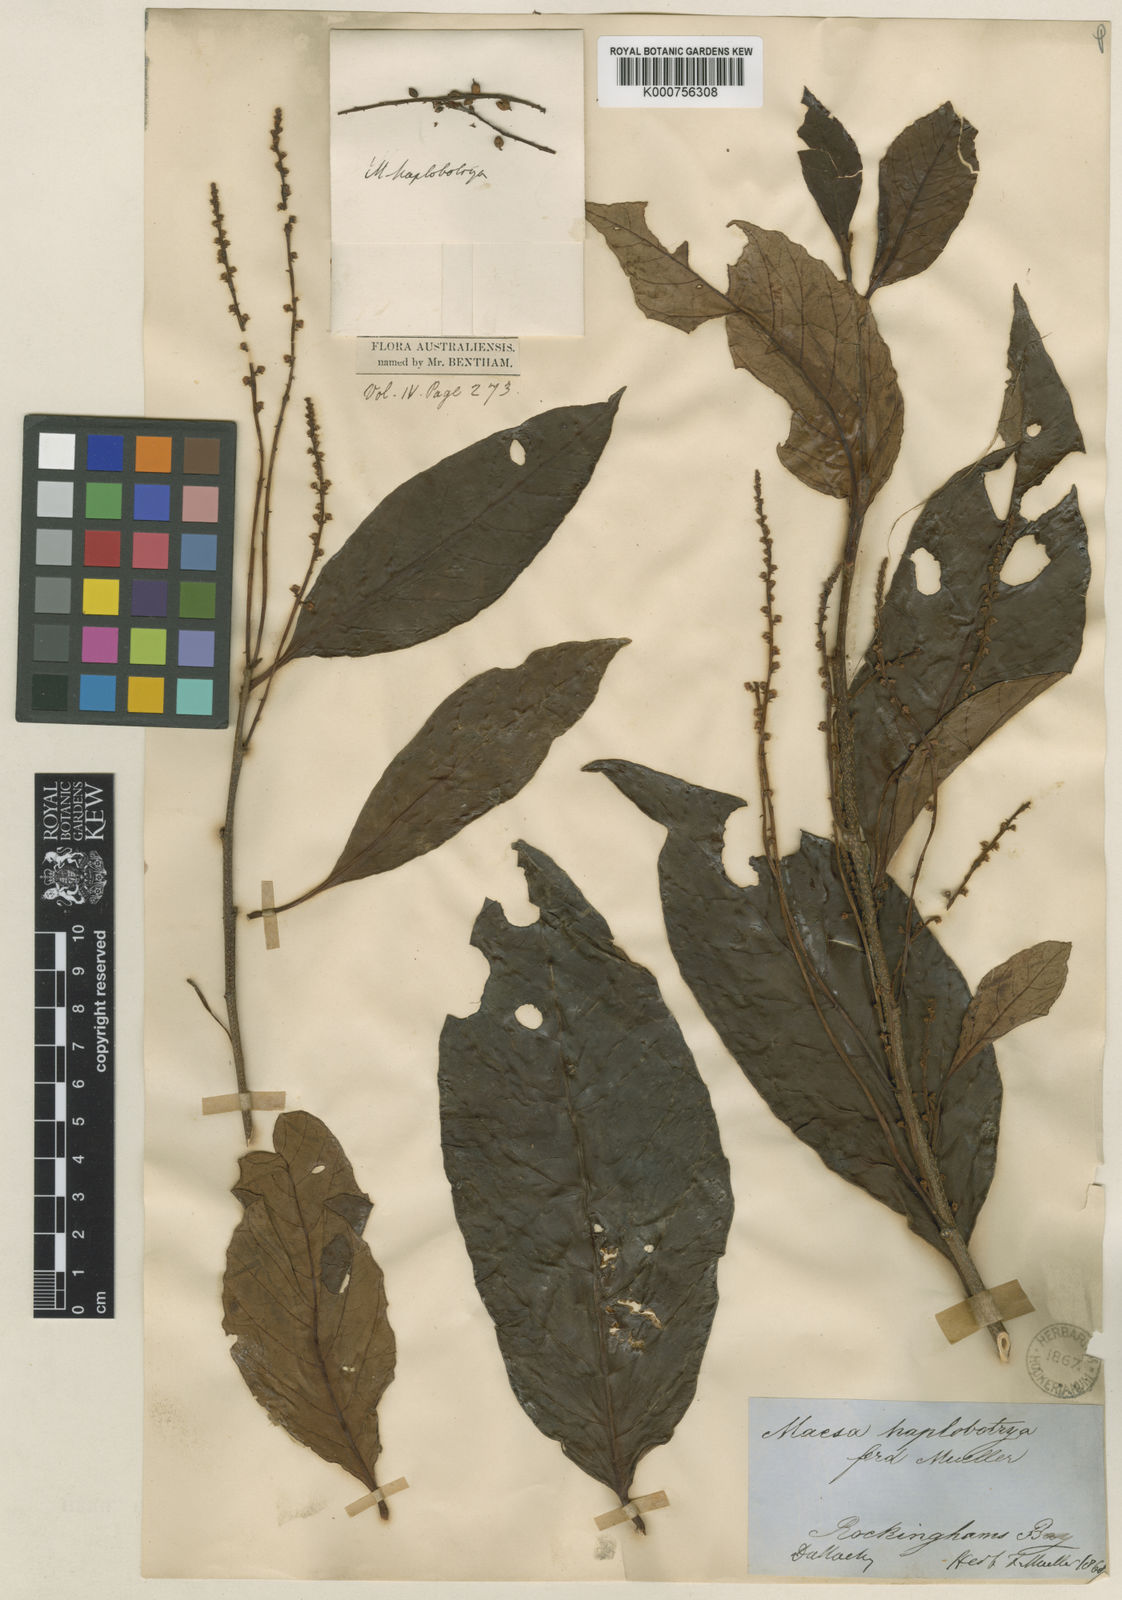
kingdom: Plantae
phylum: Tracheophyta
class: Magnoliopsida
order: Ericales
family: Primulaceae
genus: Maesa
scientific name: Maesa haplobotrys
